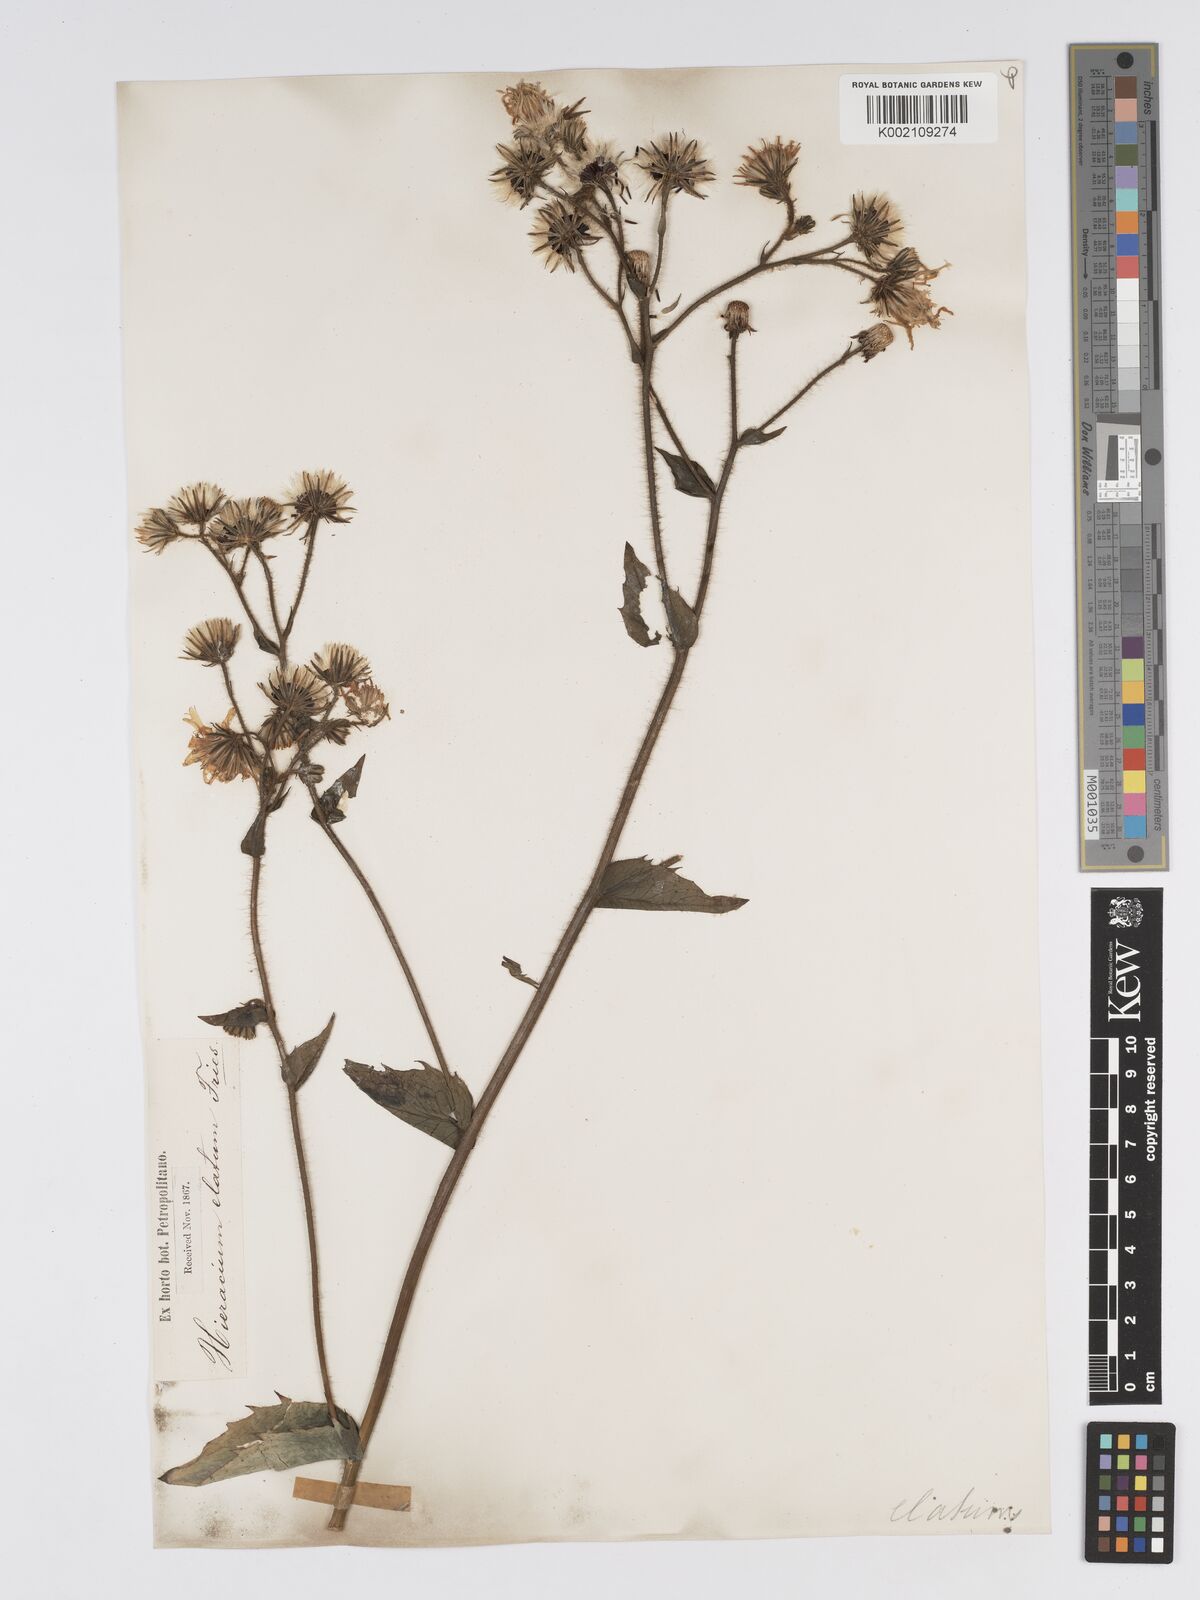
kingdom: Plantae
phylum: Tracheophyta
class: Magnoliopsida
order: Asterales
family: Asteraceae
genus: Hieracium
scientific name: Hieracium lycopifolium
